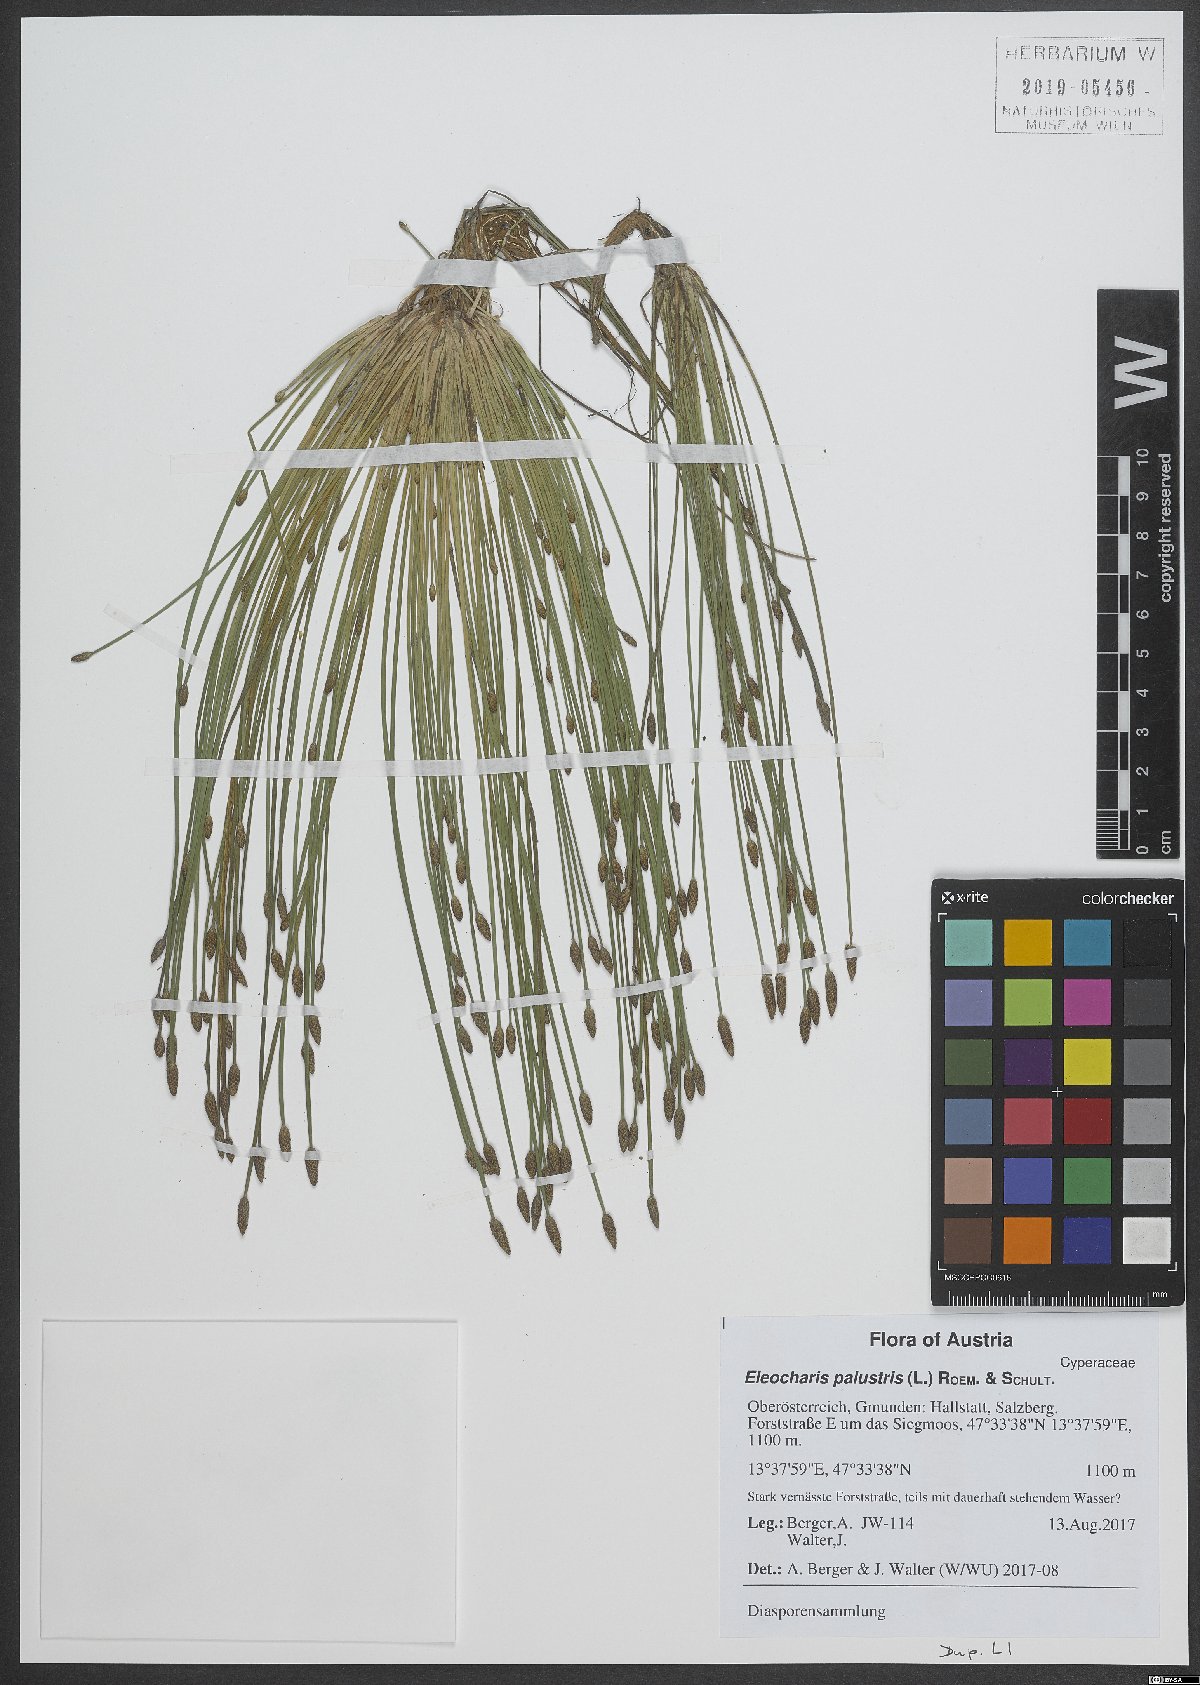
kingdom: Plantae
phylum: Tracheophyta
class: Liliopsida
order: Poales
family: Cyperaceae
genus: Eleocharis
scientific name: Eleocharis palustris
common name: Common spike-rush
